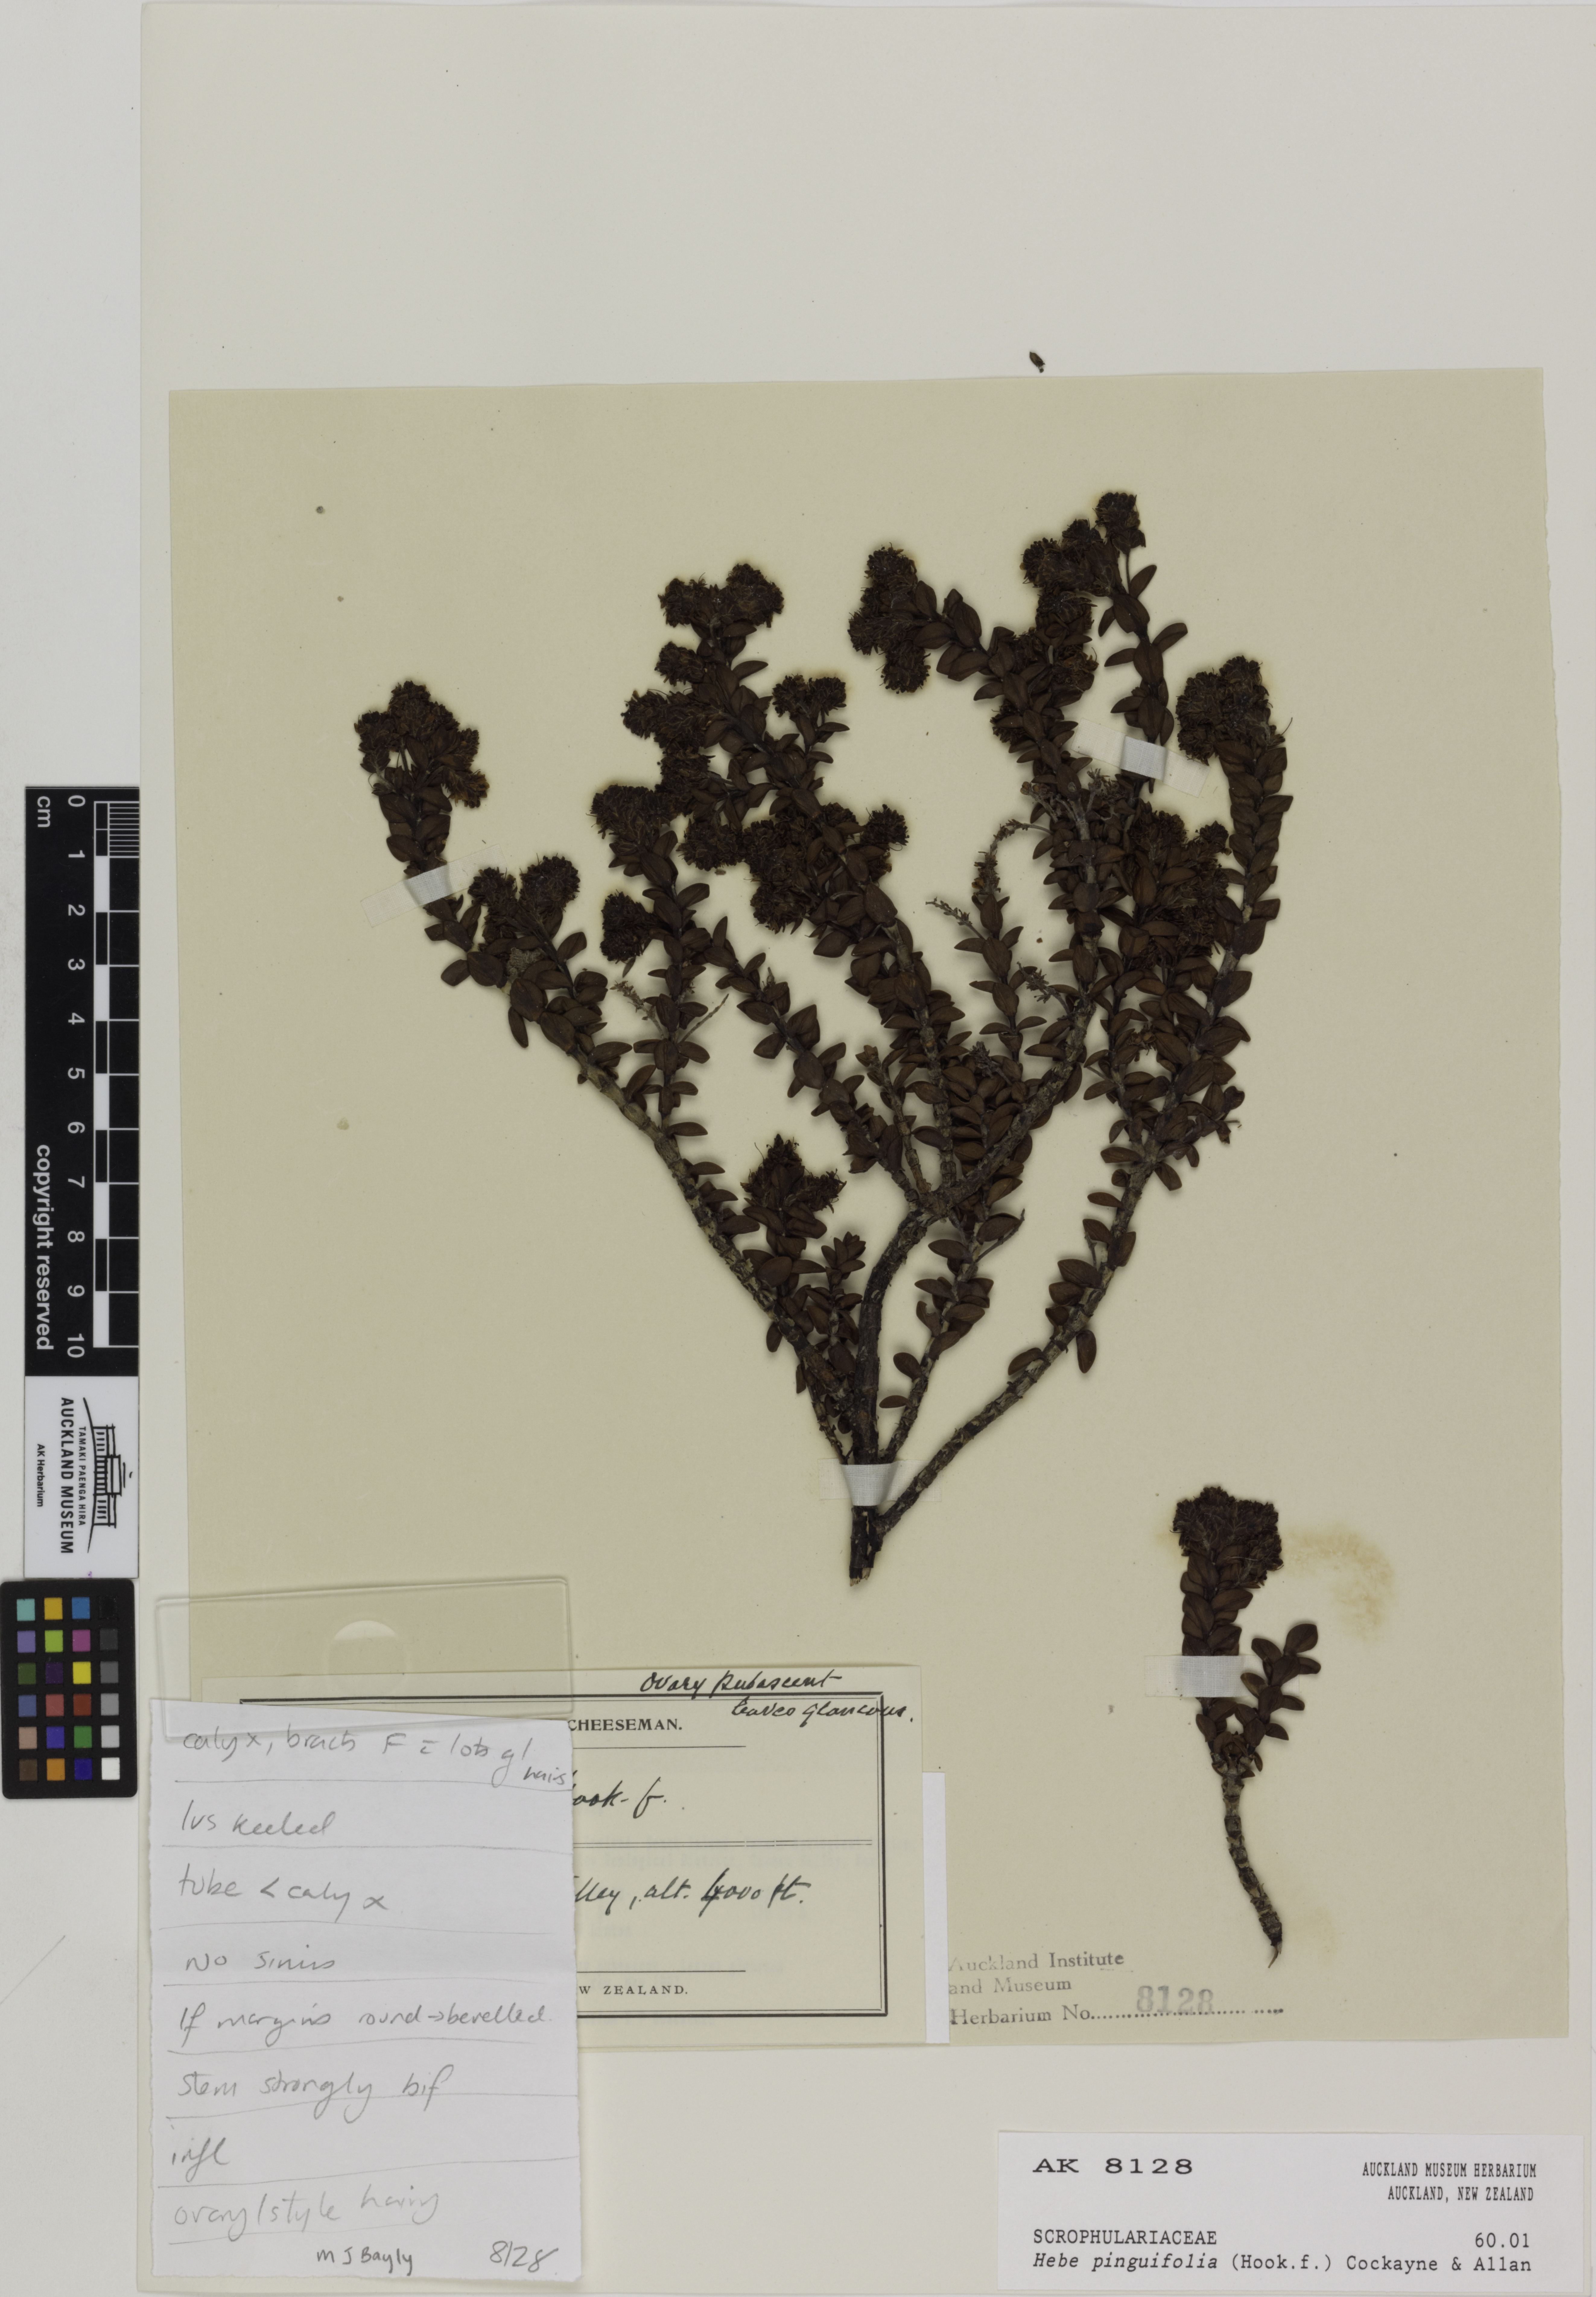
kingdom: Plantae
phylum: Tracheophyta
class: Magnoliopsida
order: Lamiales
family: Plantaginaceae
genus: Veronica
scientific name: Veronica pinguifolia
